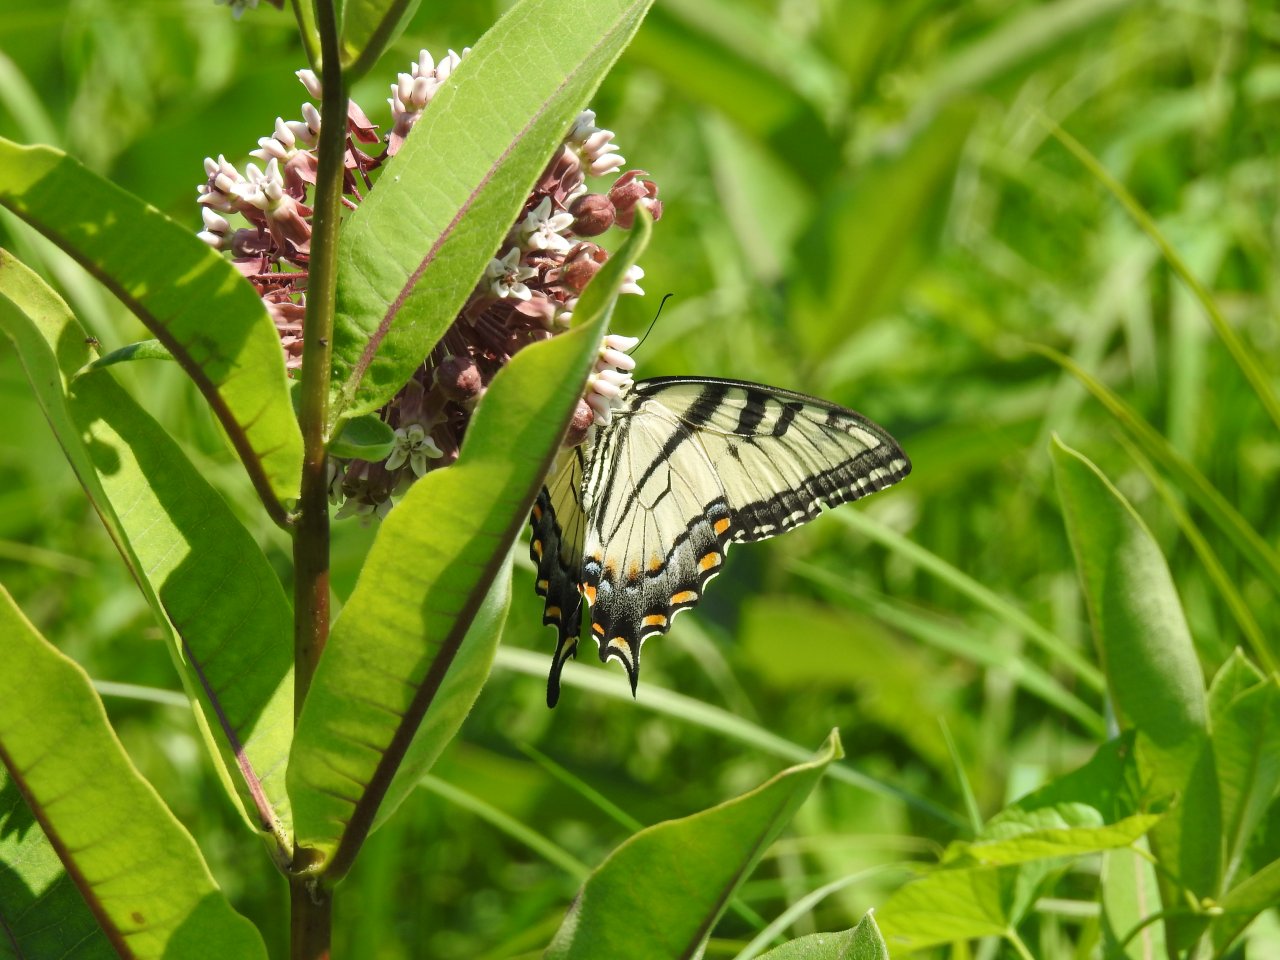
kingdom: Animalia
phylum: Arthropoda
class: Insecta
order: Lepidoptera
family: Papilionidae
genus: Pterourus
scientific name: Pterourus glaucus
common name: Eastern Tiger Swallowtail
